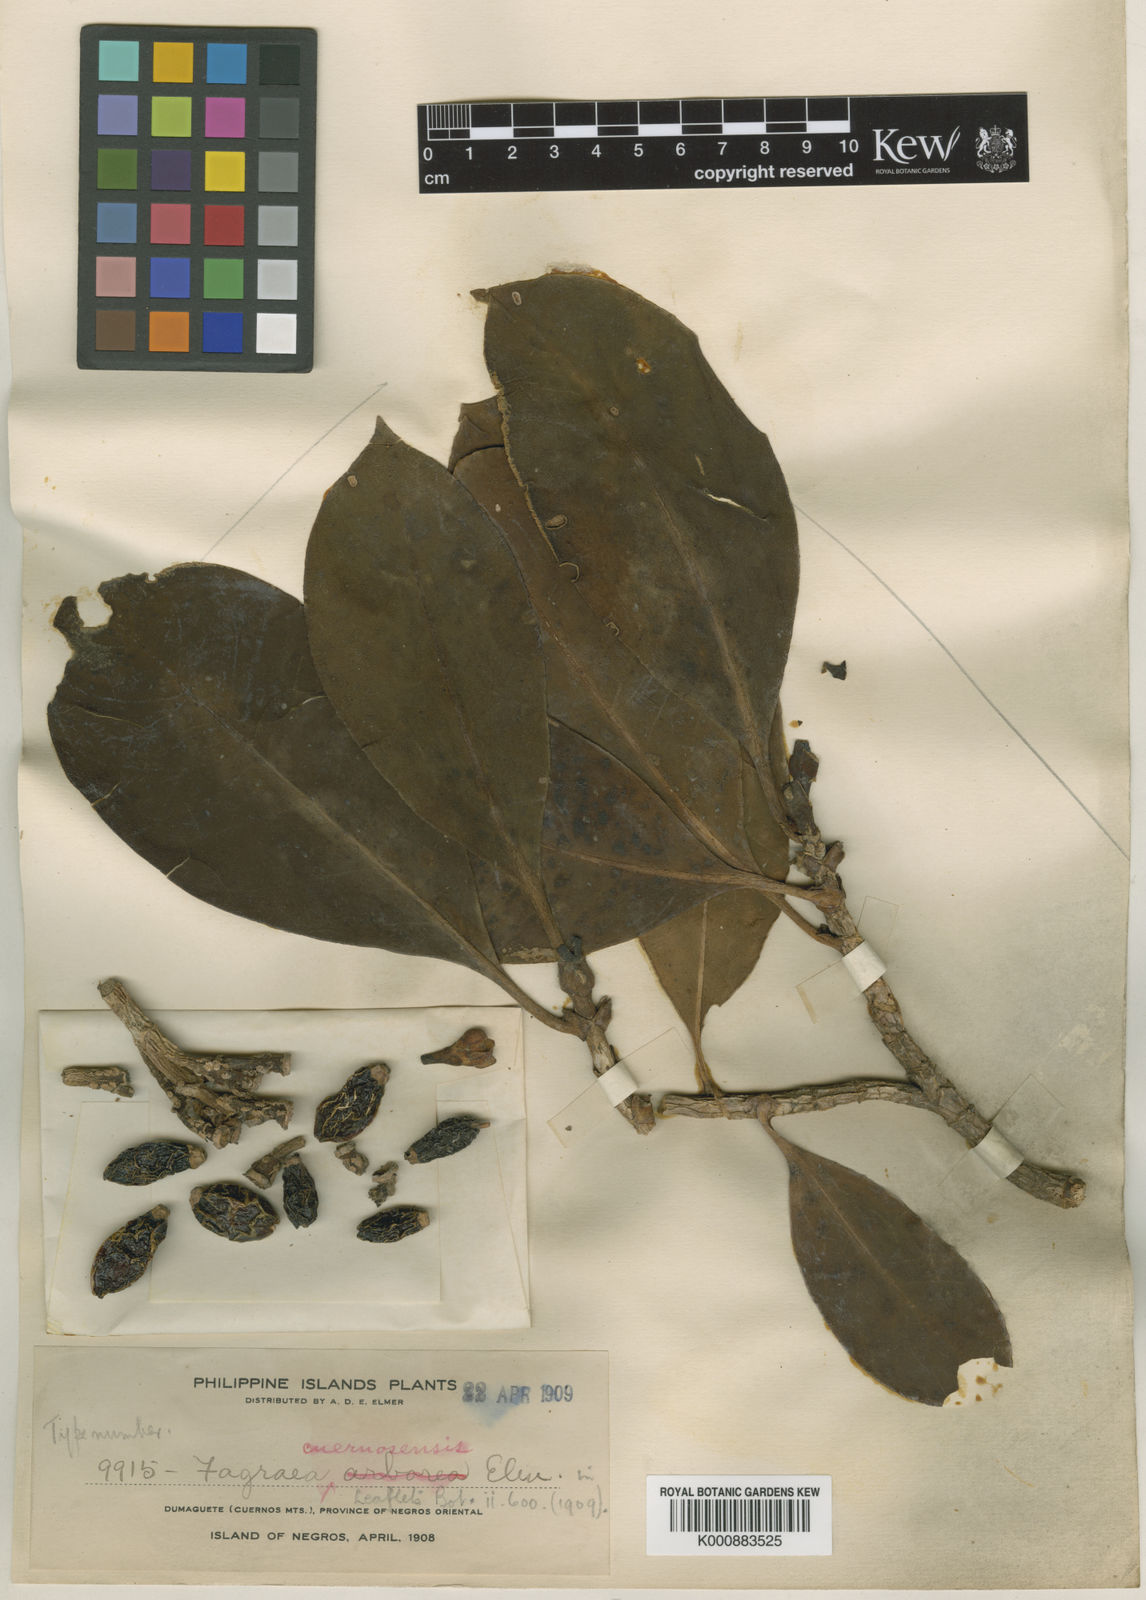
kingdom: Plantae
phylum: Tracheophyta
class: Magnoliopsida
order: Gentianales
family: Gentianaceae
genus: Fagraea
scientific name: Fagraea plumeriiflora
